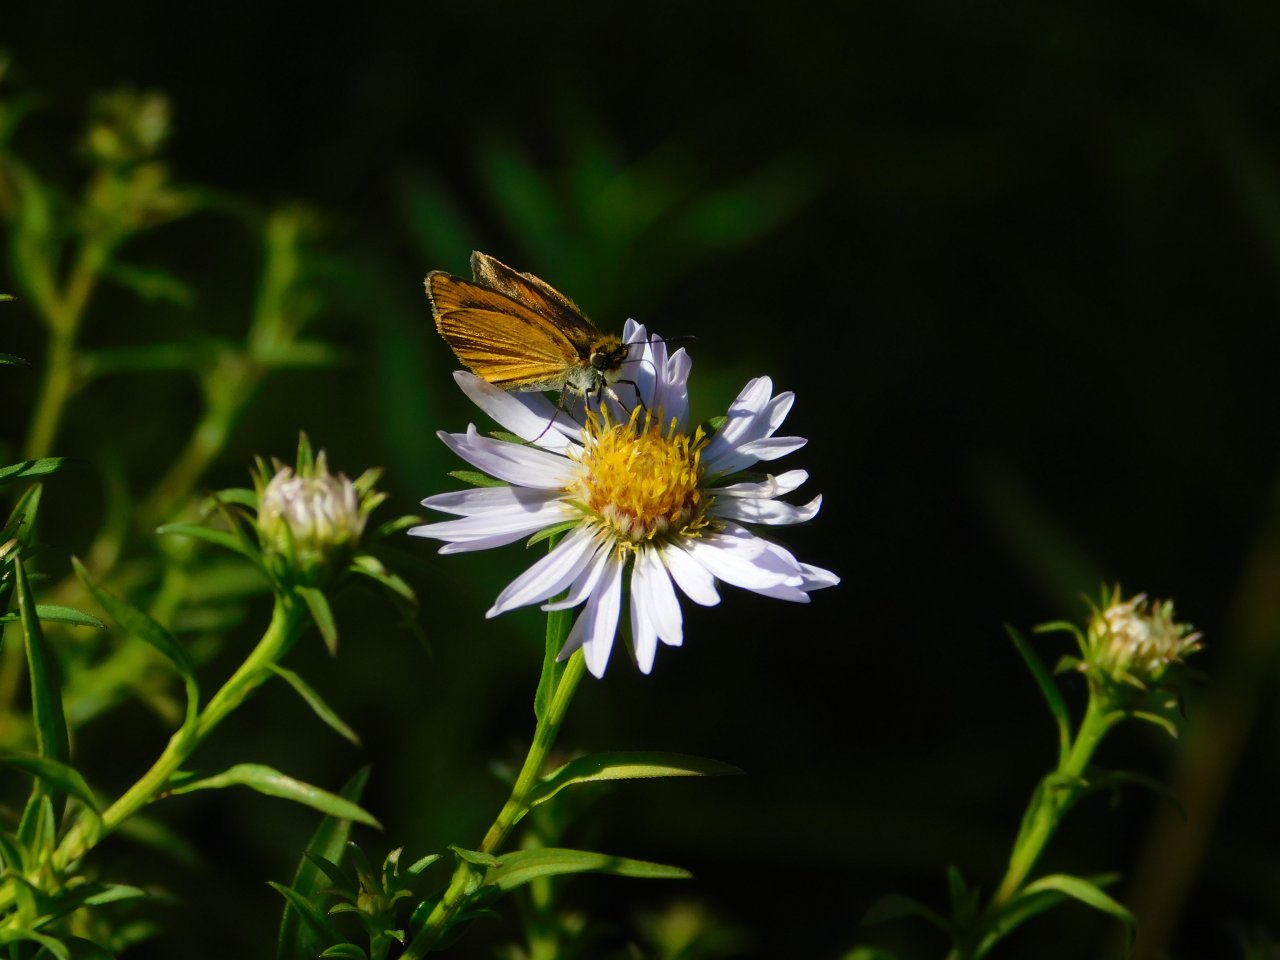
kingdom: Animalia
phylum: Arthropoda
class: Insecta
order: Lepidoptera
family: Hesperiidae
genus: Ancyloxypha
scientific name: Ancyloxypha numitor
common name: Least Skipper
